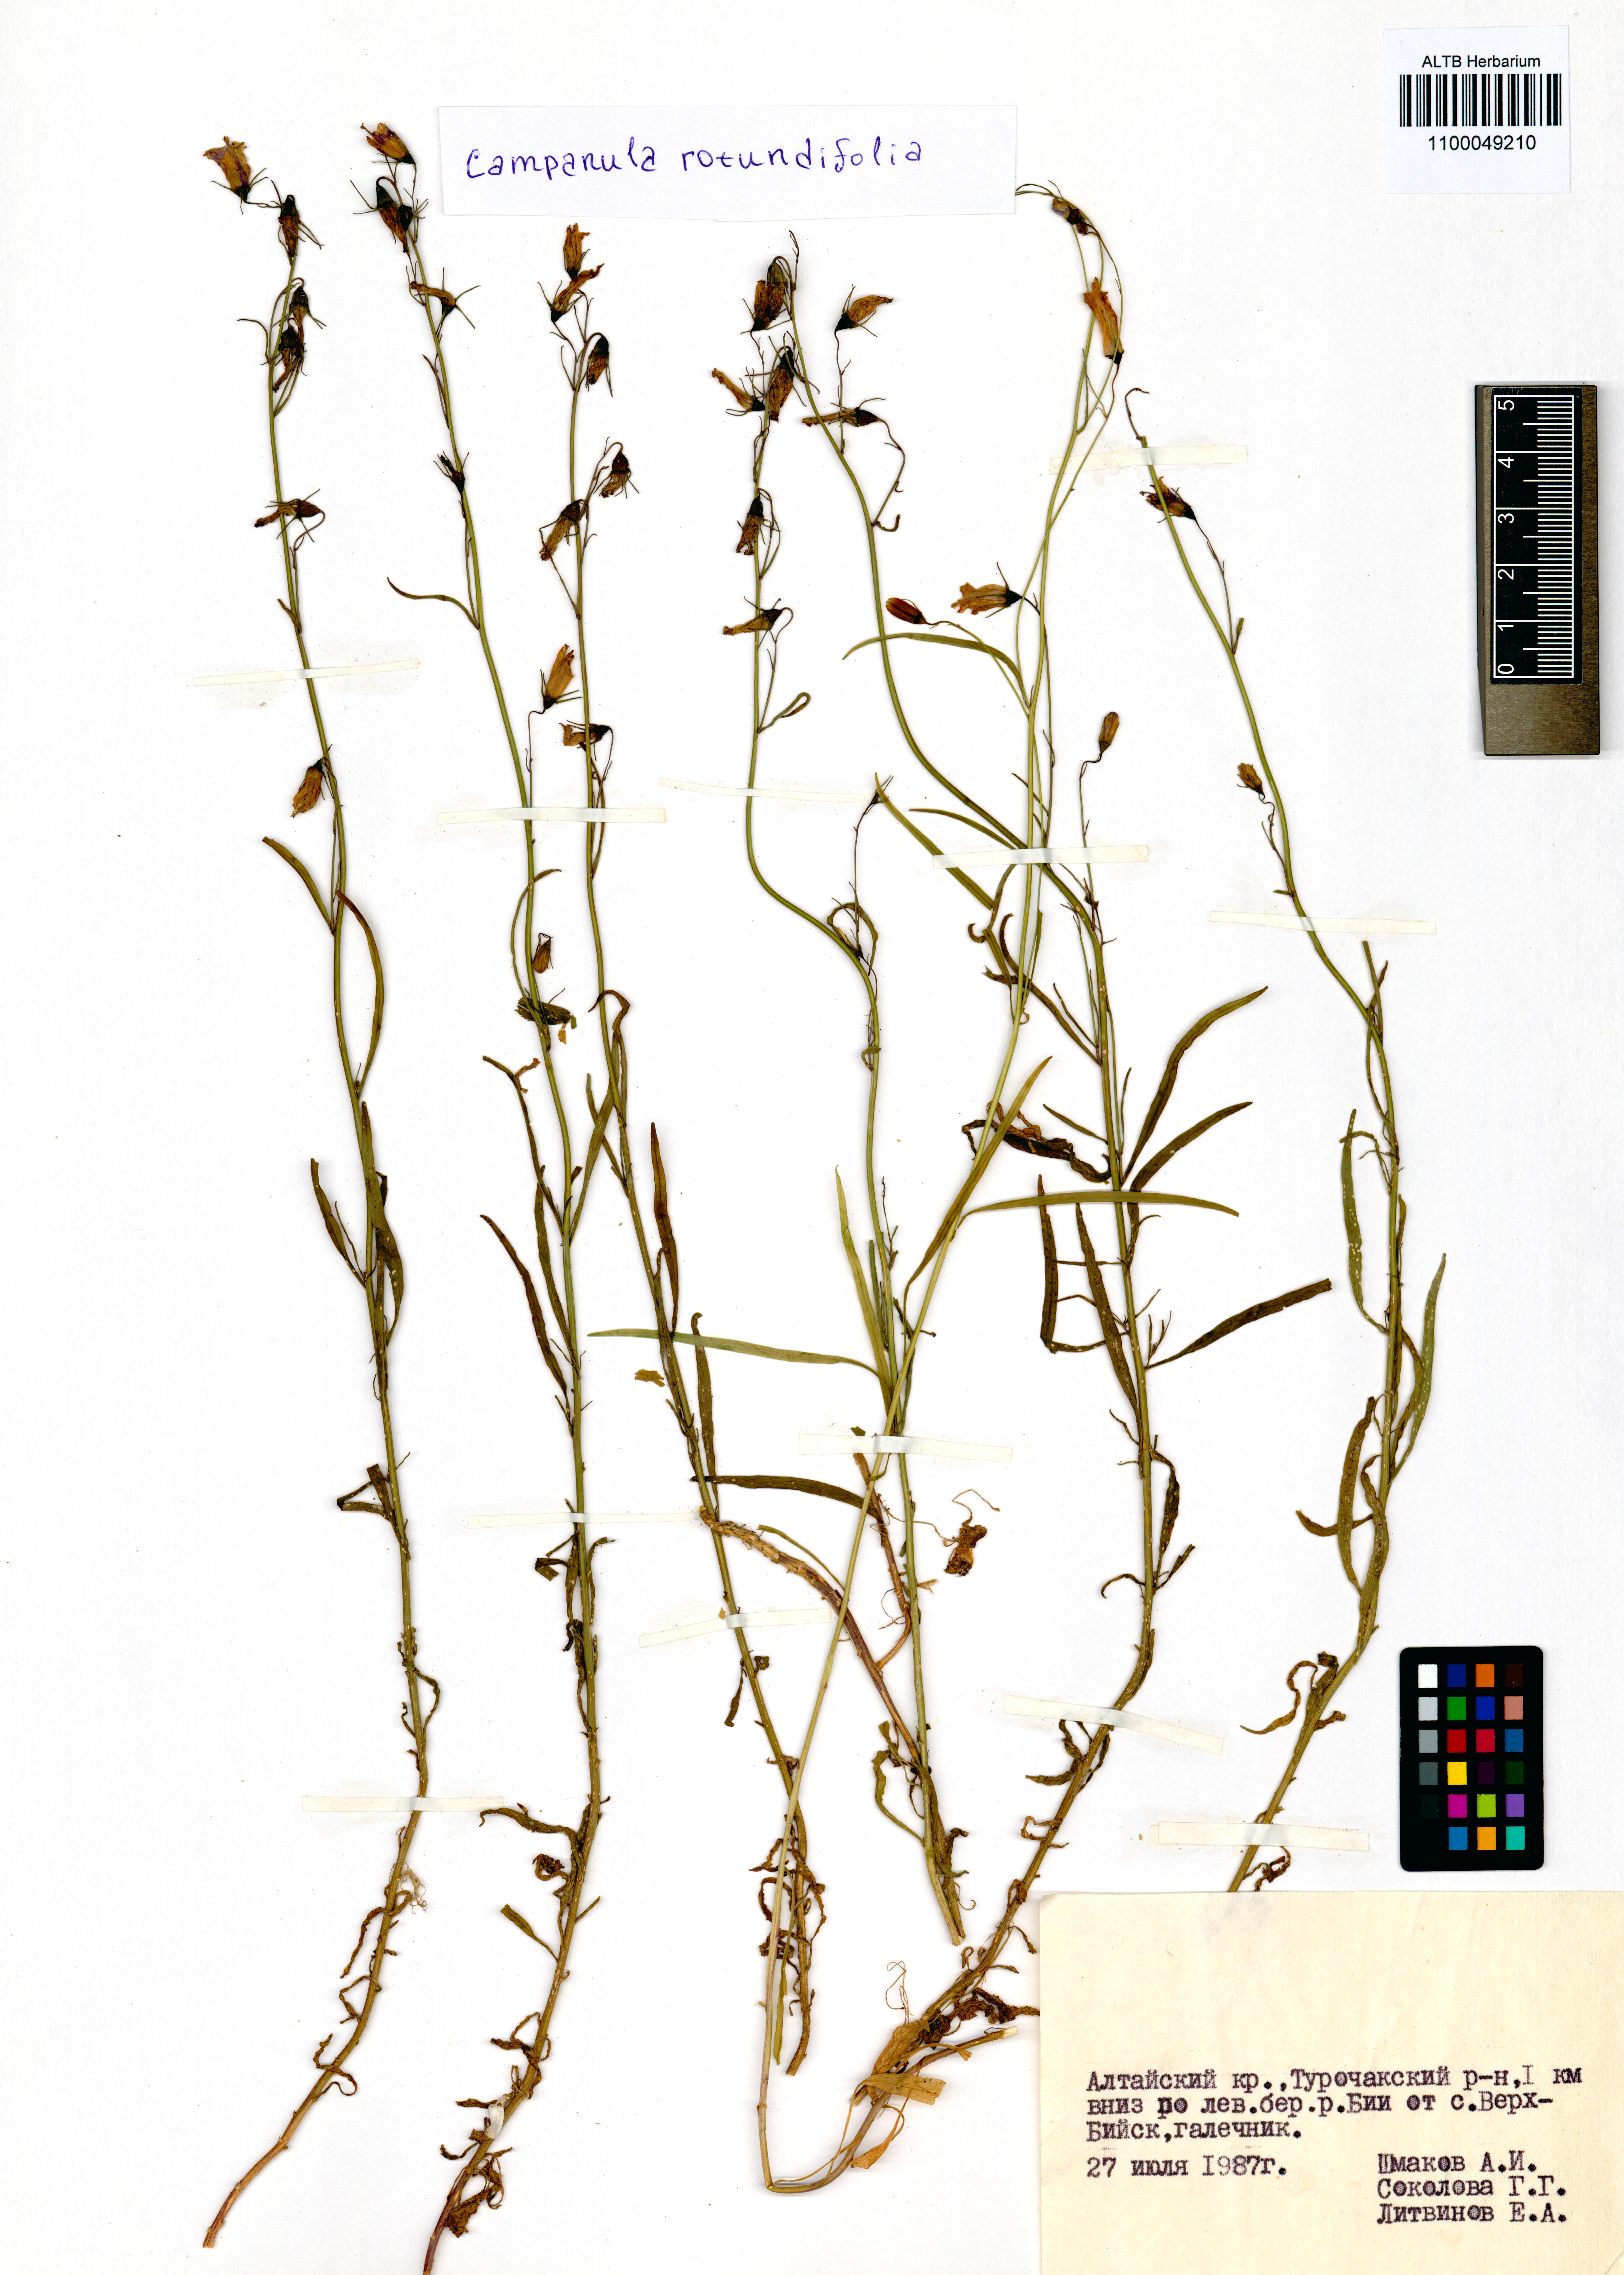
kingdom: Plantae
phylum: Tracheophyta
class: Magnoliopsida
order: Asterales
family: Campanulaceae
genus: Campanula
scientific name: Campanula rotundifolia
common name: Harebell
